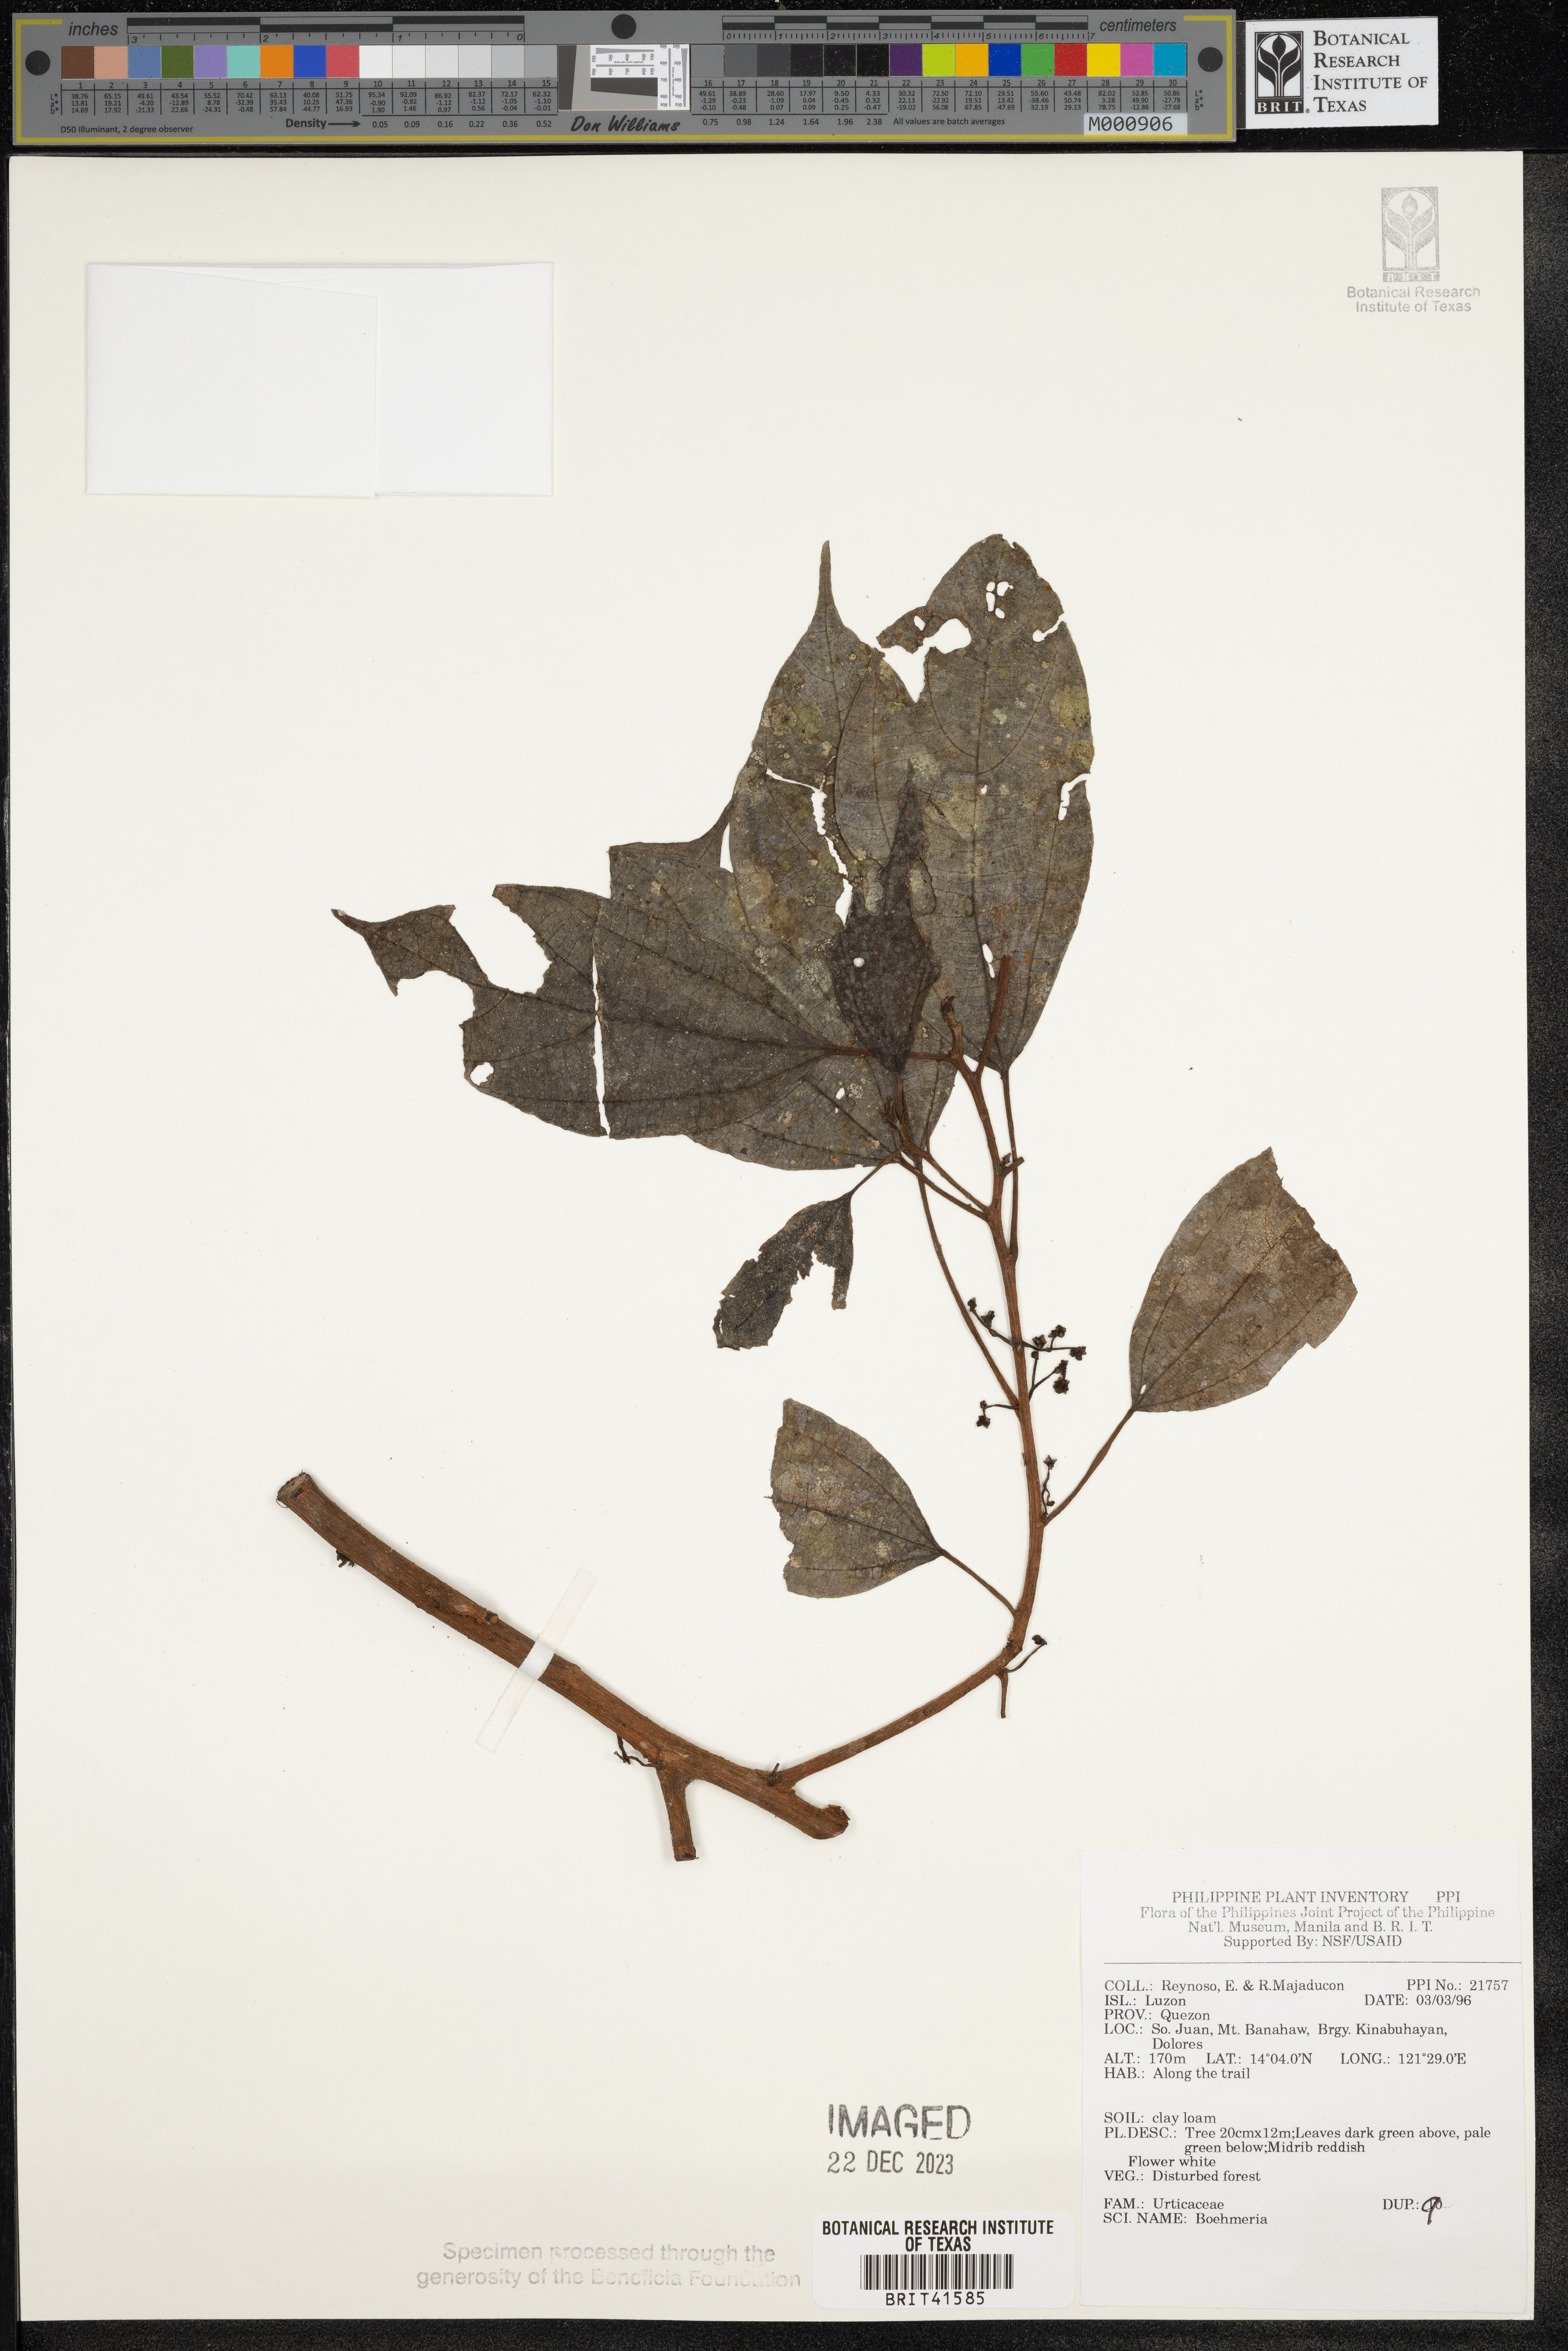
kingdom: Plantae
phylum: Tracheophyta
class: Magnoliopsida
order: Rosales
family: Urticaceae
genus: Boehmeria
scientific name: Boehmeria
